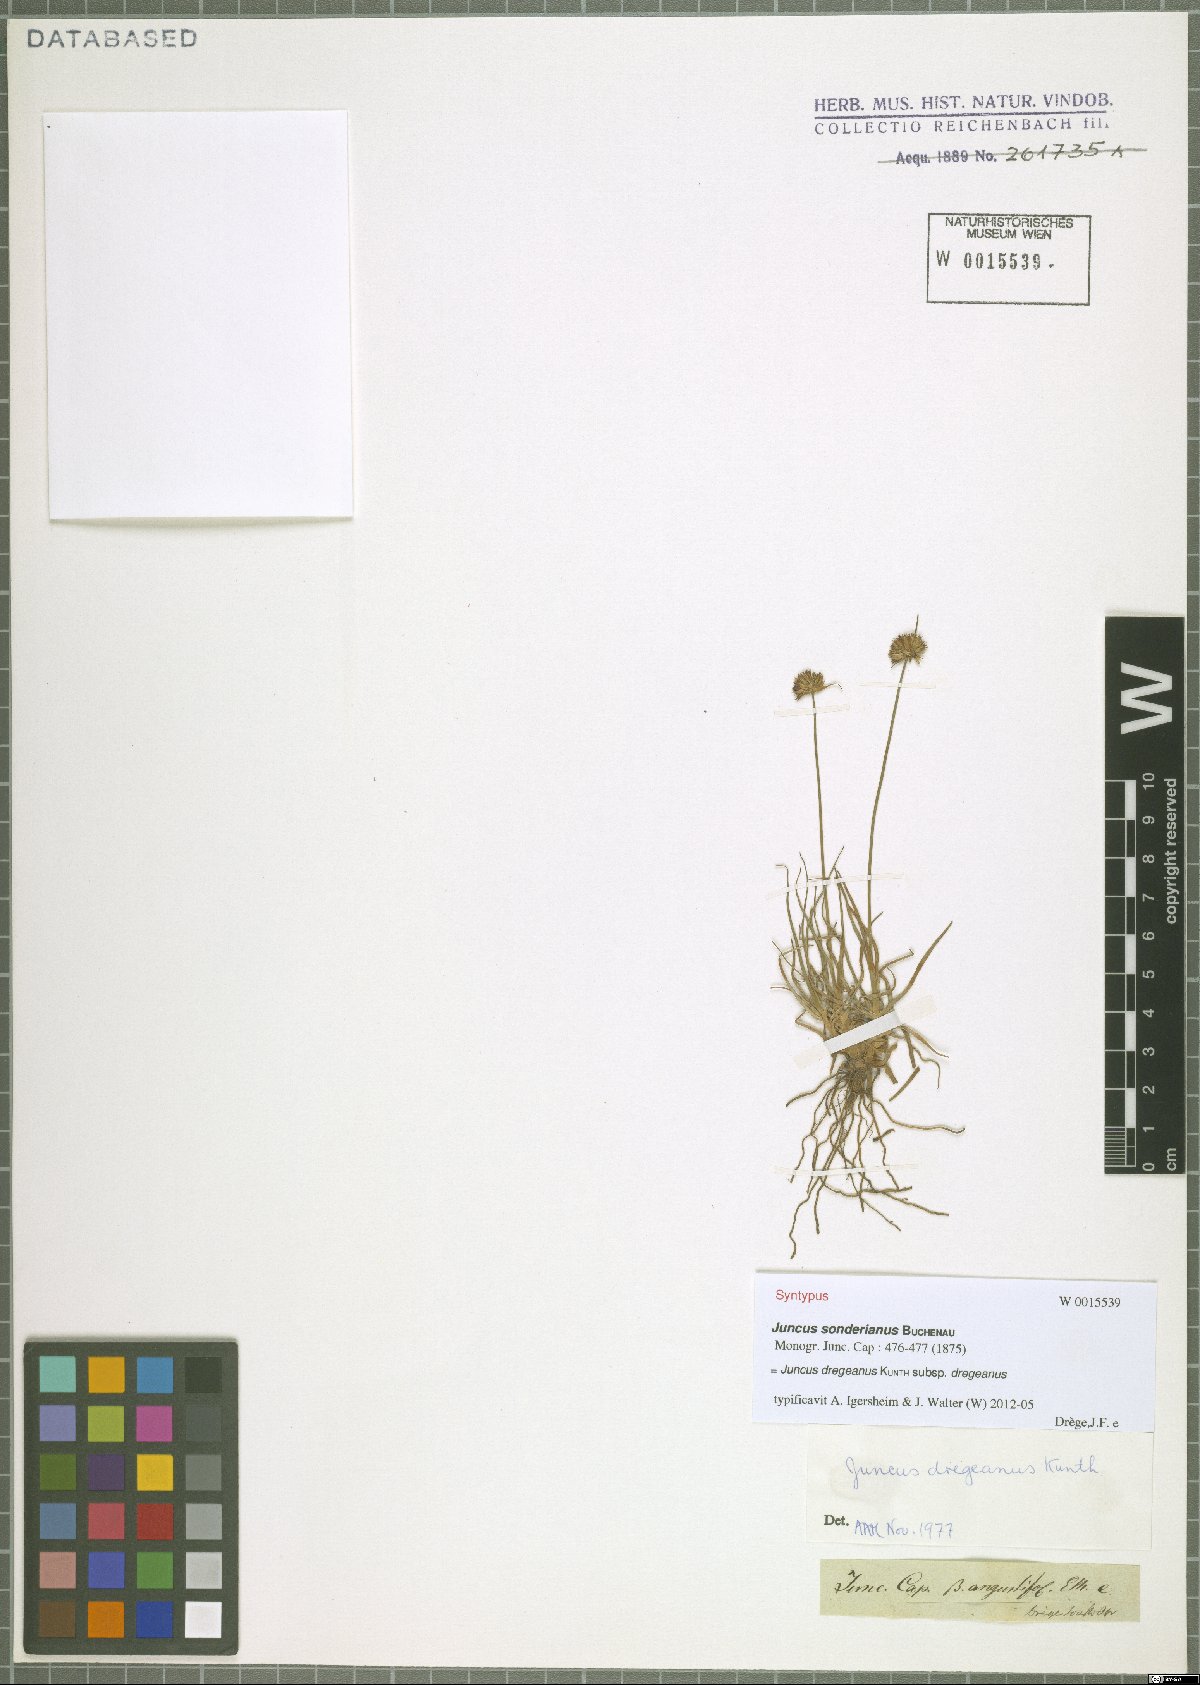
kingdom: Plantae
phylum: Tracheophyta
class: Liliopsida
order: Poales
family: Juncaceae
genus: Juncus
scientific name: Juncus dregeanus
